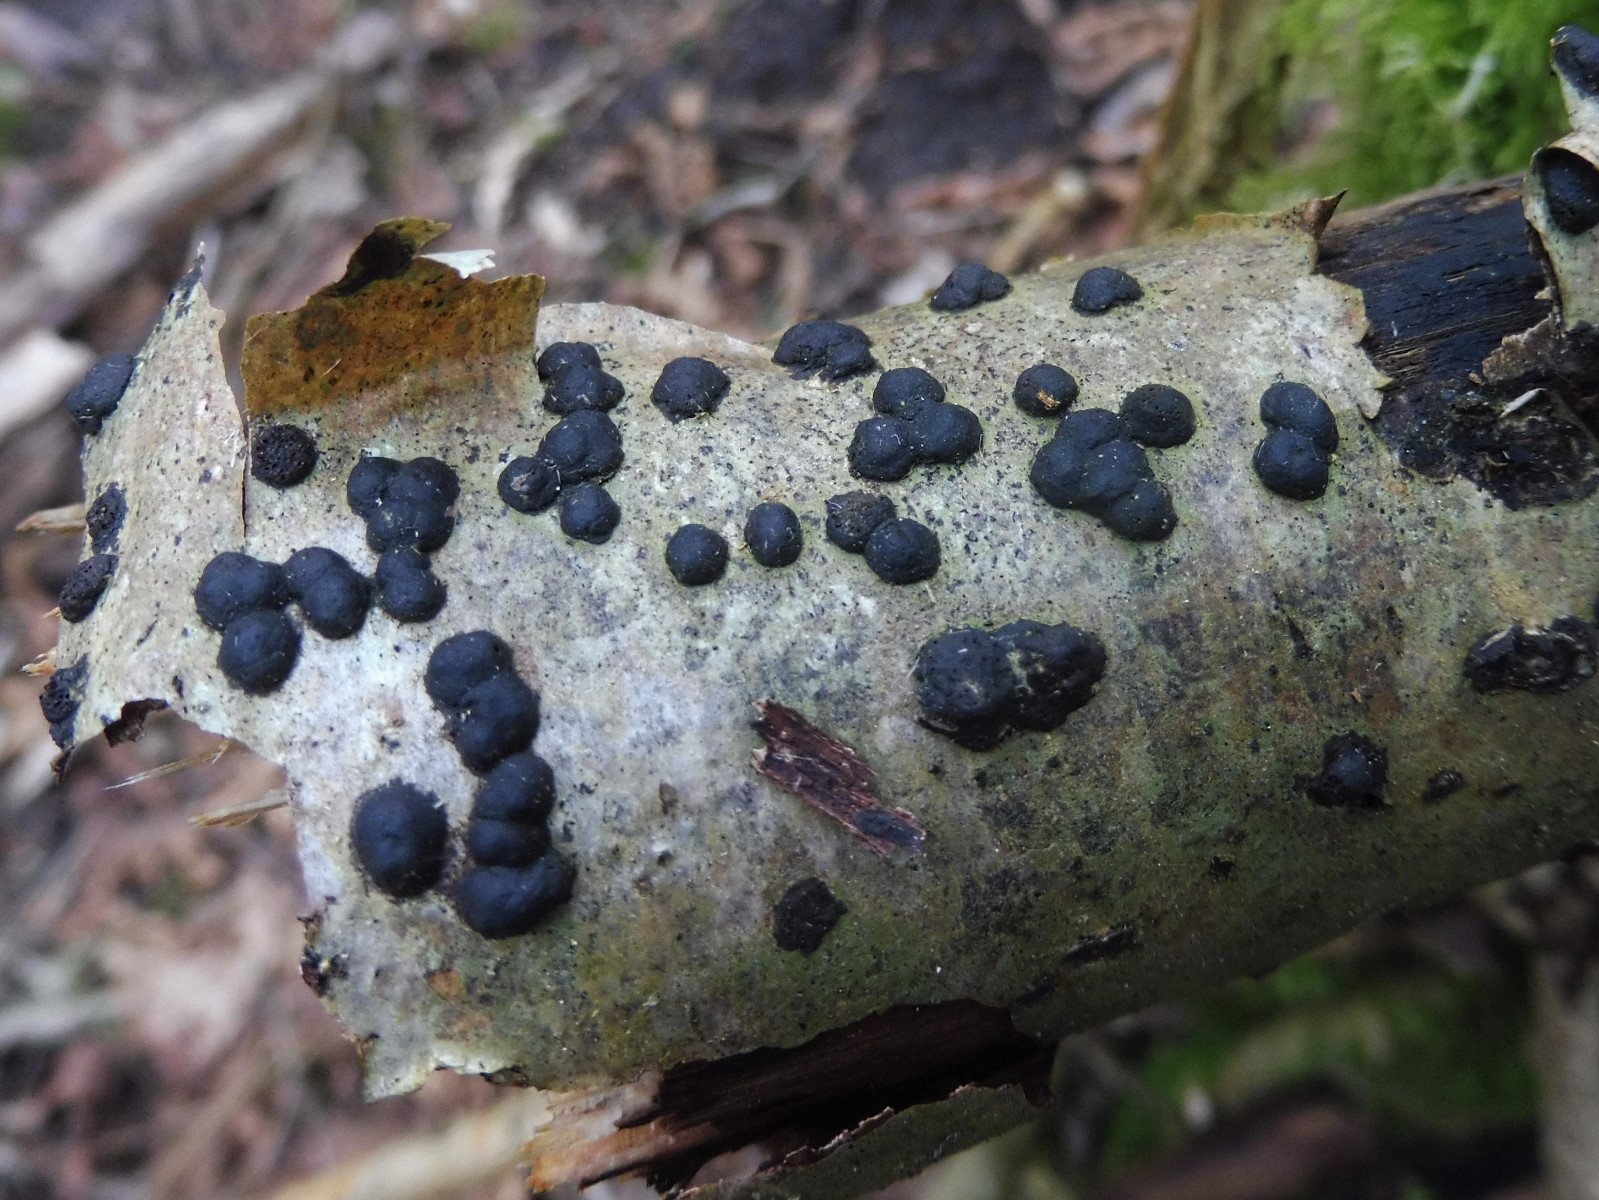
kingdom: Fungi
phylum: Ascomycota
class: Sordariomycetes
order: Xylariales
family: Hypoxylaceae
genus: Hypoxylon
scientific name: Hypoxylon fuscum
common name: kegleformet kulbær
